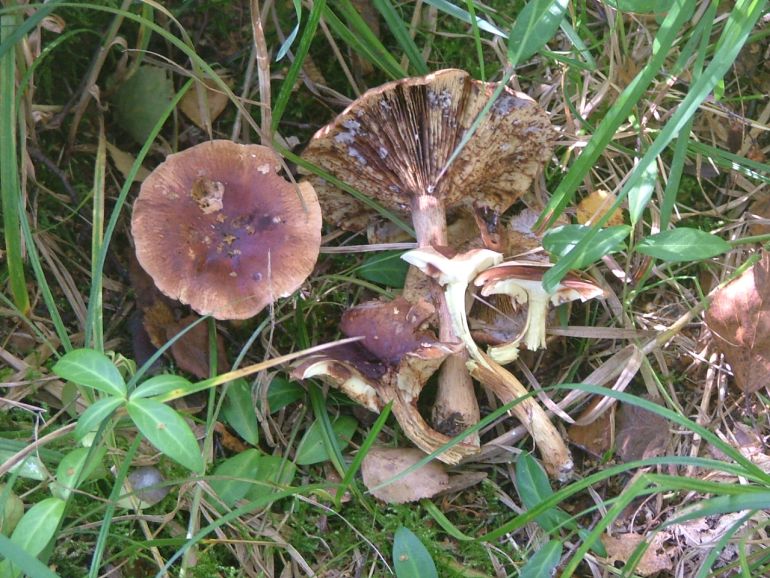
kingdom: Fungi
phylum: Basidiomycota
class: Agaricomycetes
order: Agaricales
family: Tricholomataceae
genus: Tricholoma
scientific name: Tricholoma fulvum
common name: birke-ridderhat
